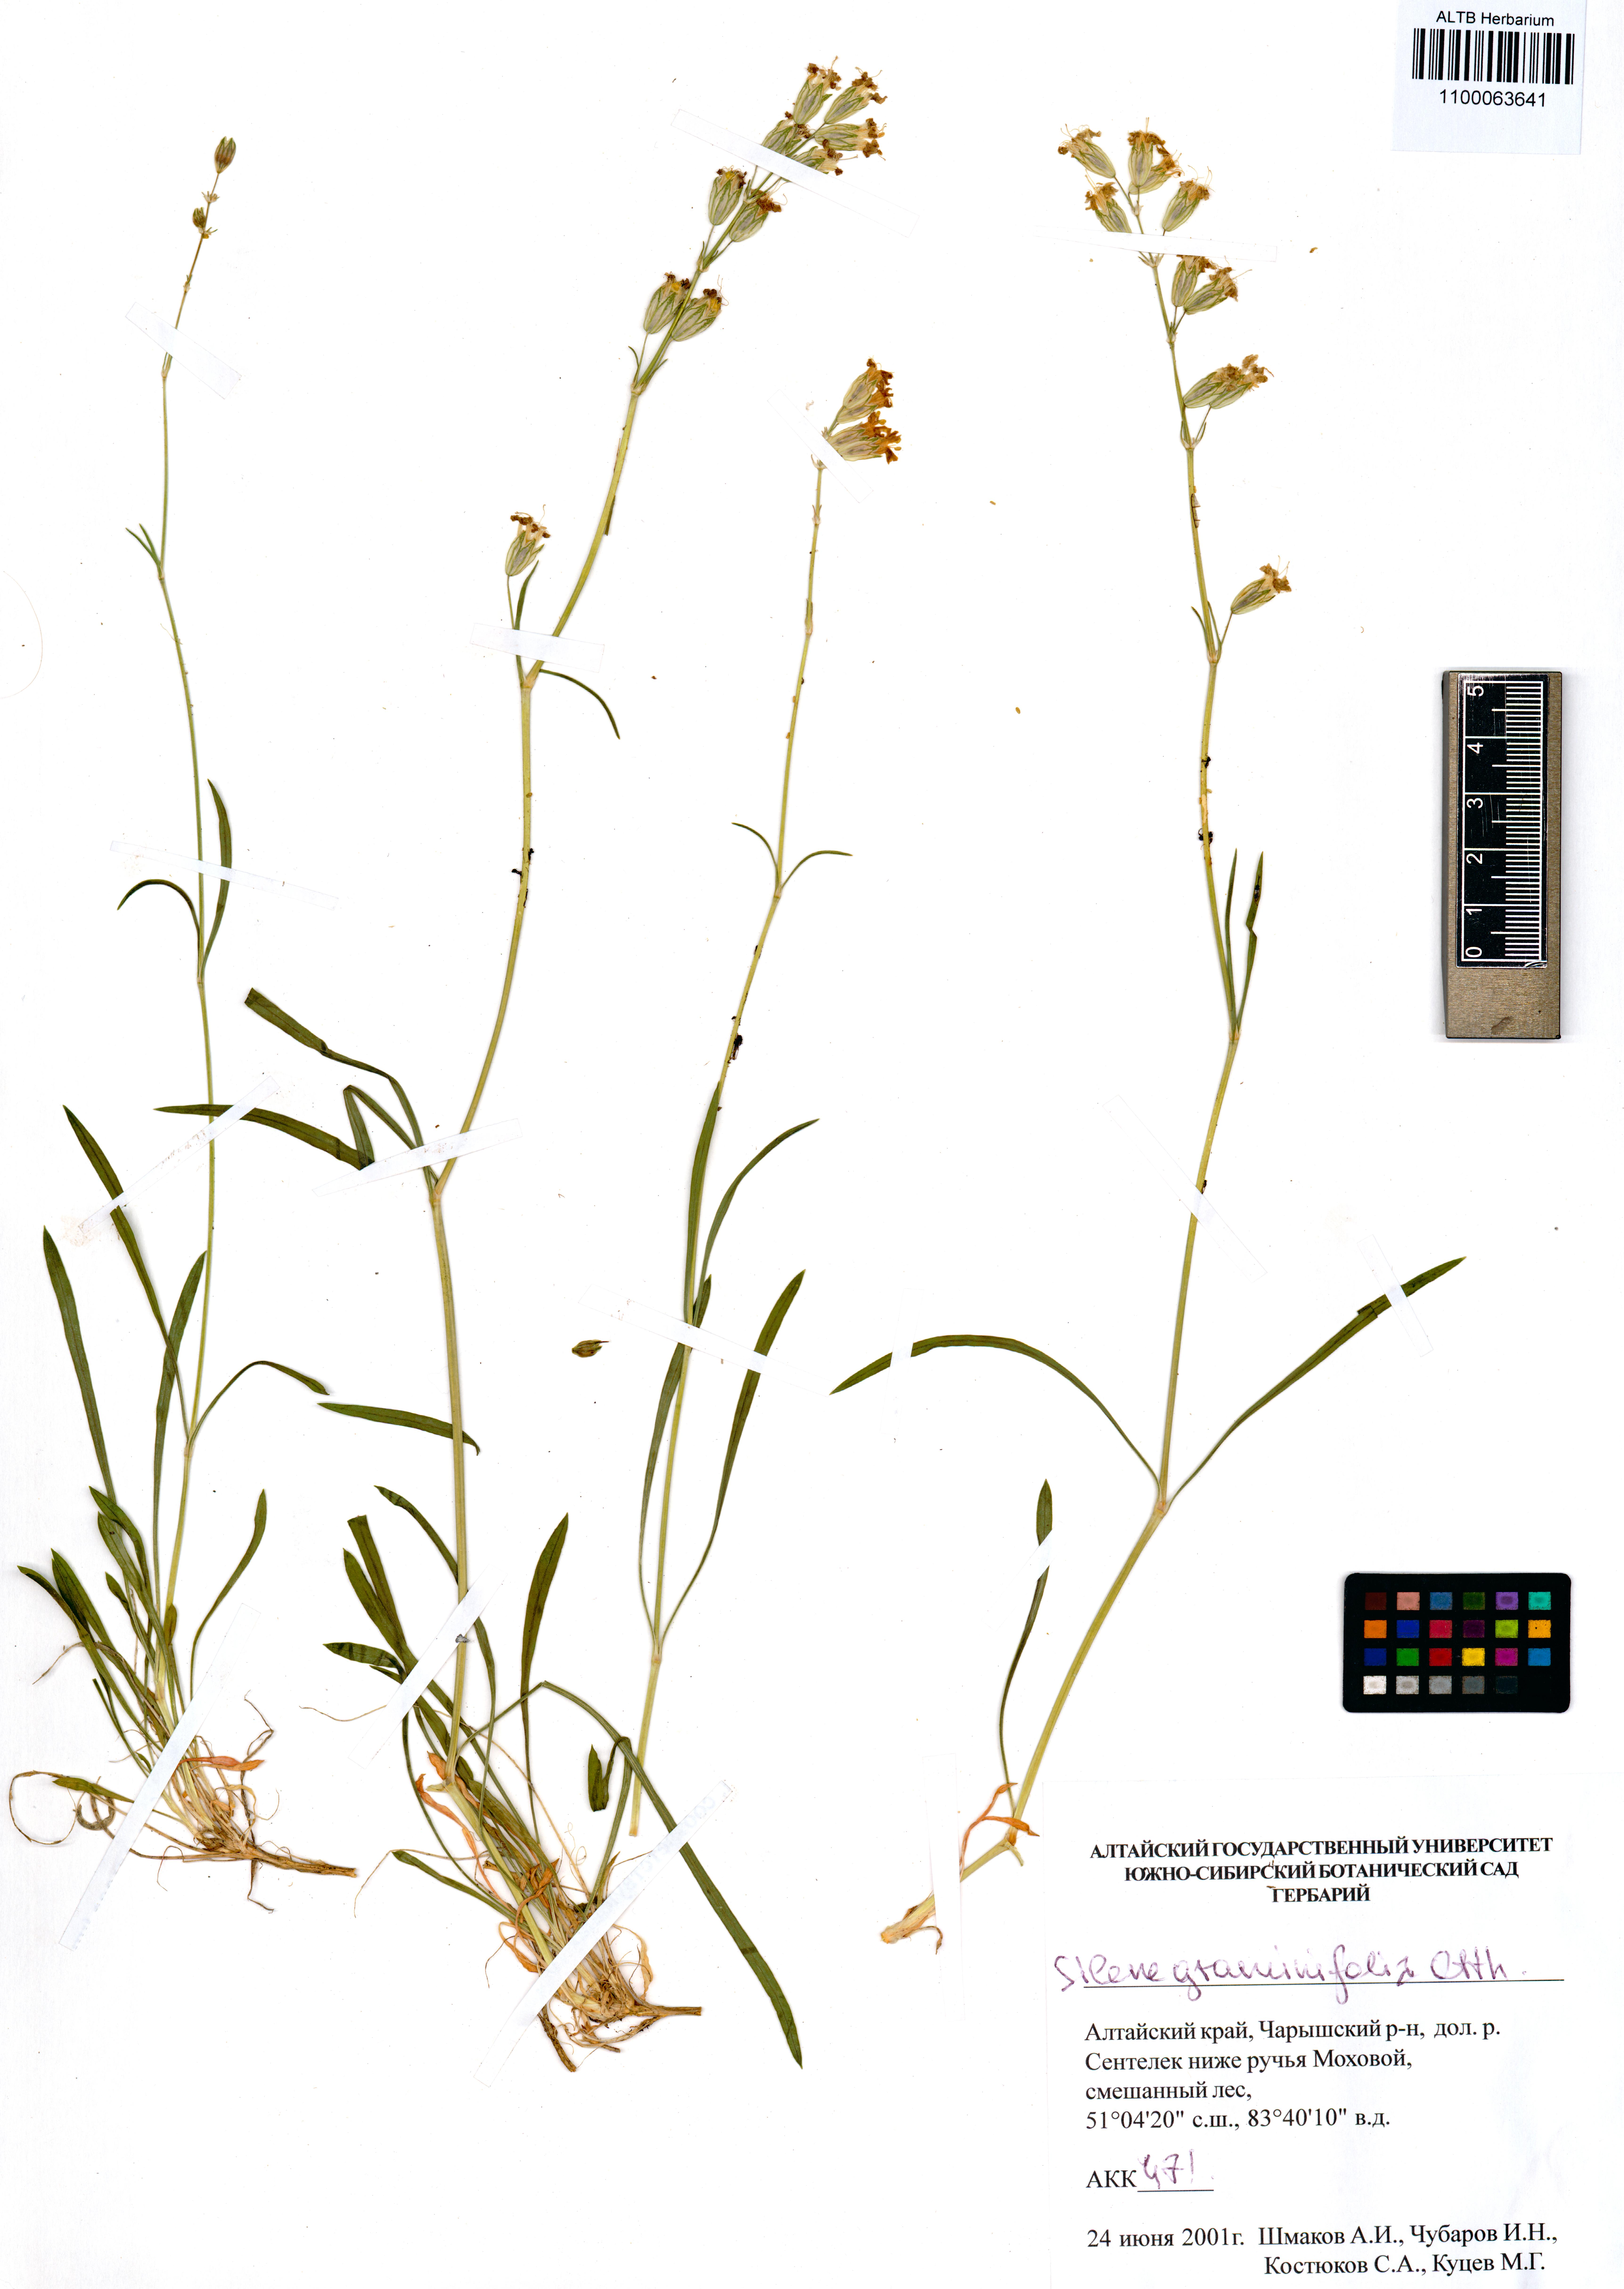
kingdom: Plantae
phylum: Tracheophyta
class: Magnoliopsida
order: Caryophyllales
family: Caryophyllaceae
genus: Silene
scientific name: Silene graminifolia
